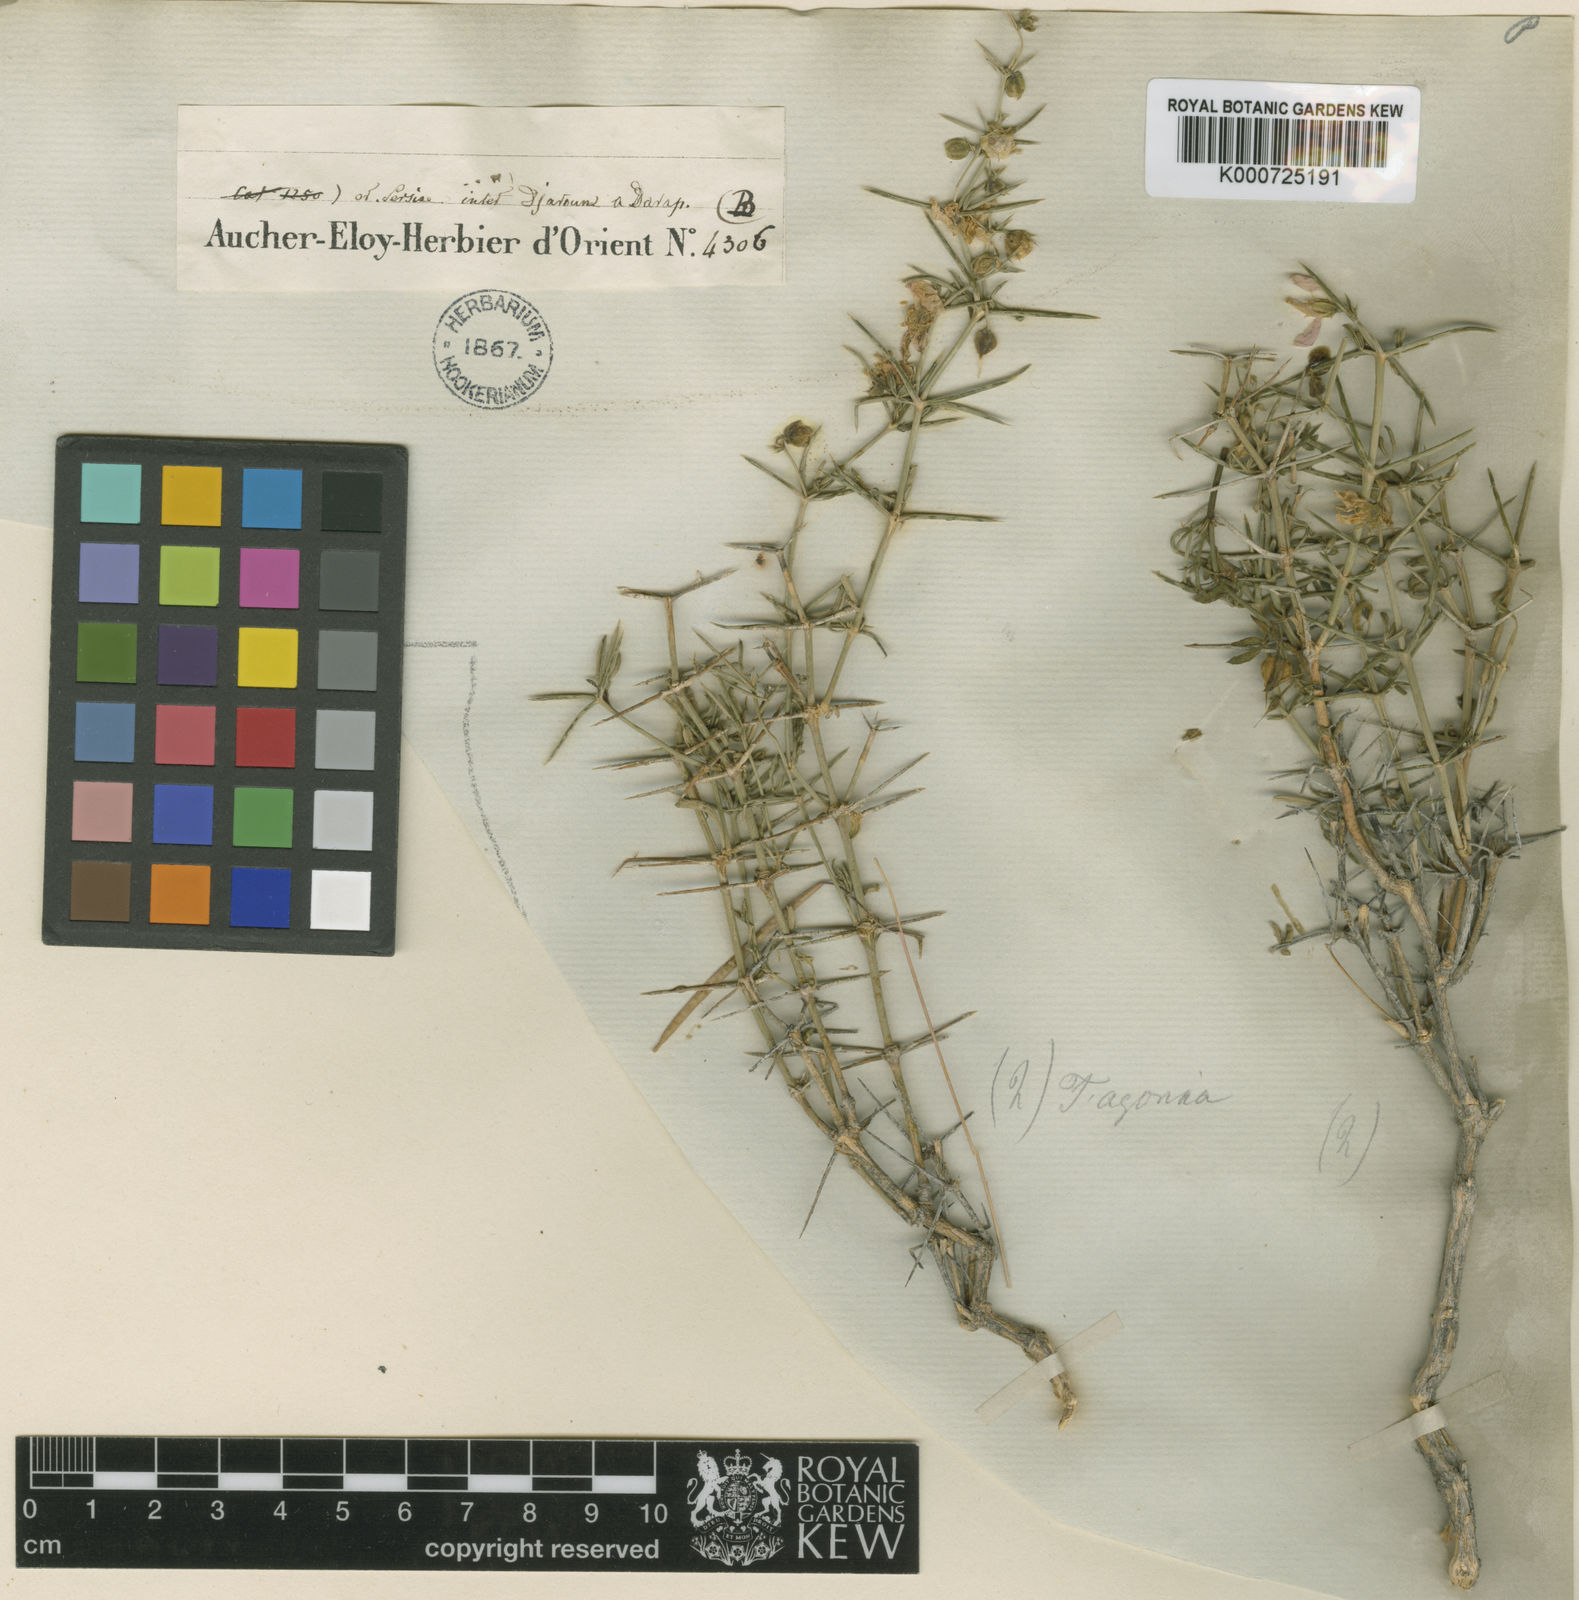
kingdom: Plantae
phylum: Tracheophyta
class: Magnoliopsida
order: Zygophyllales
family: Zygophyllaceae
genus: Fagonia
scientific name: Fagonia acerosa
